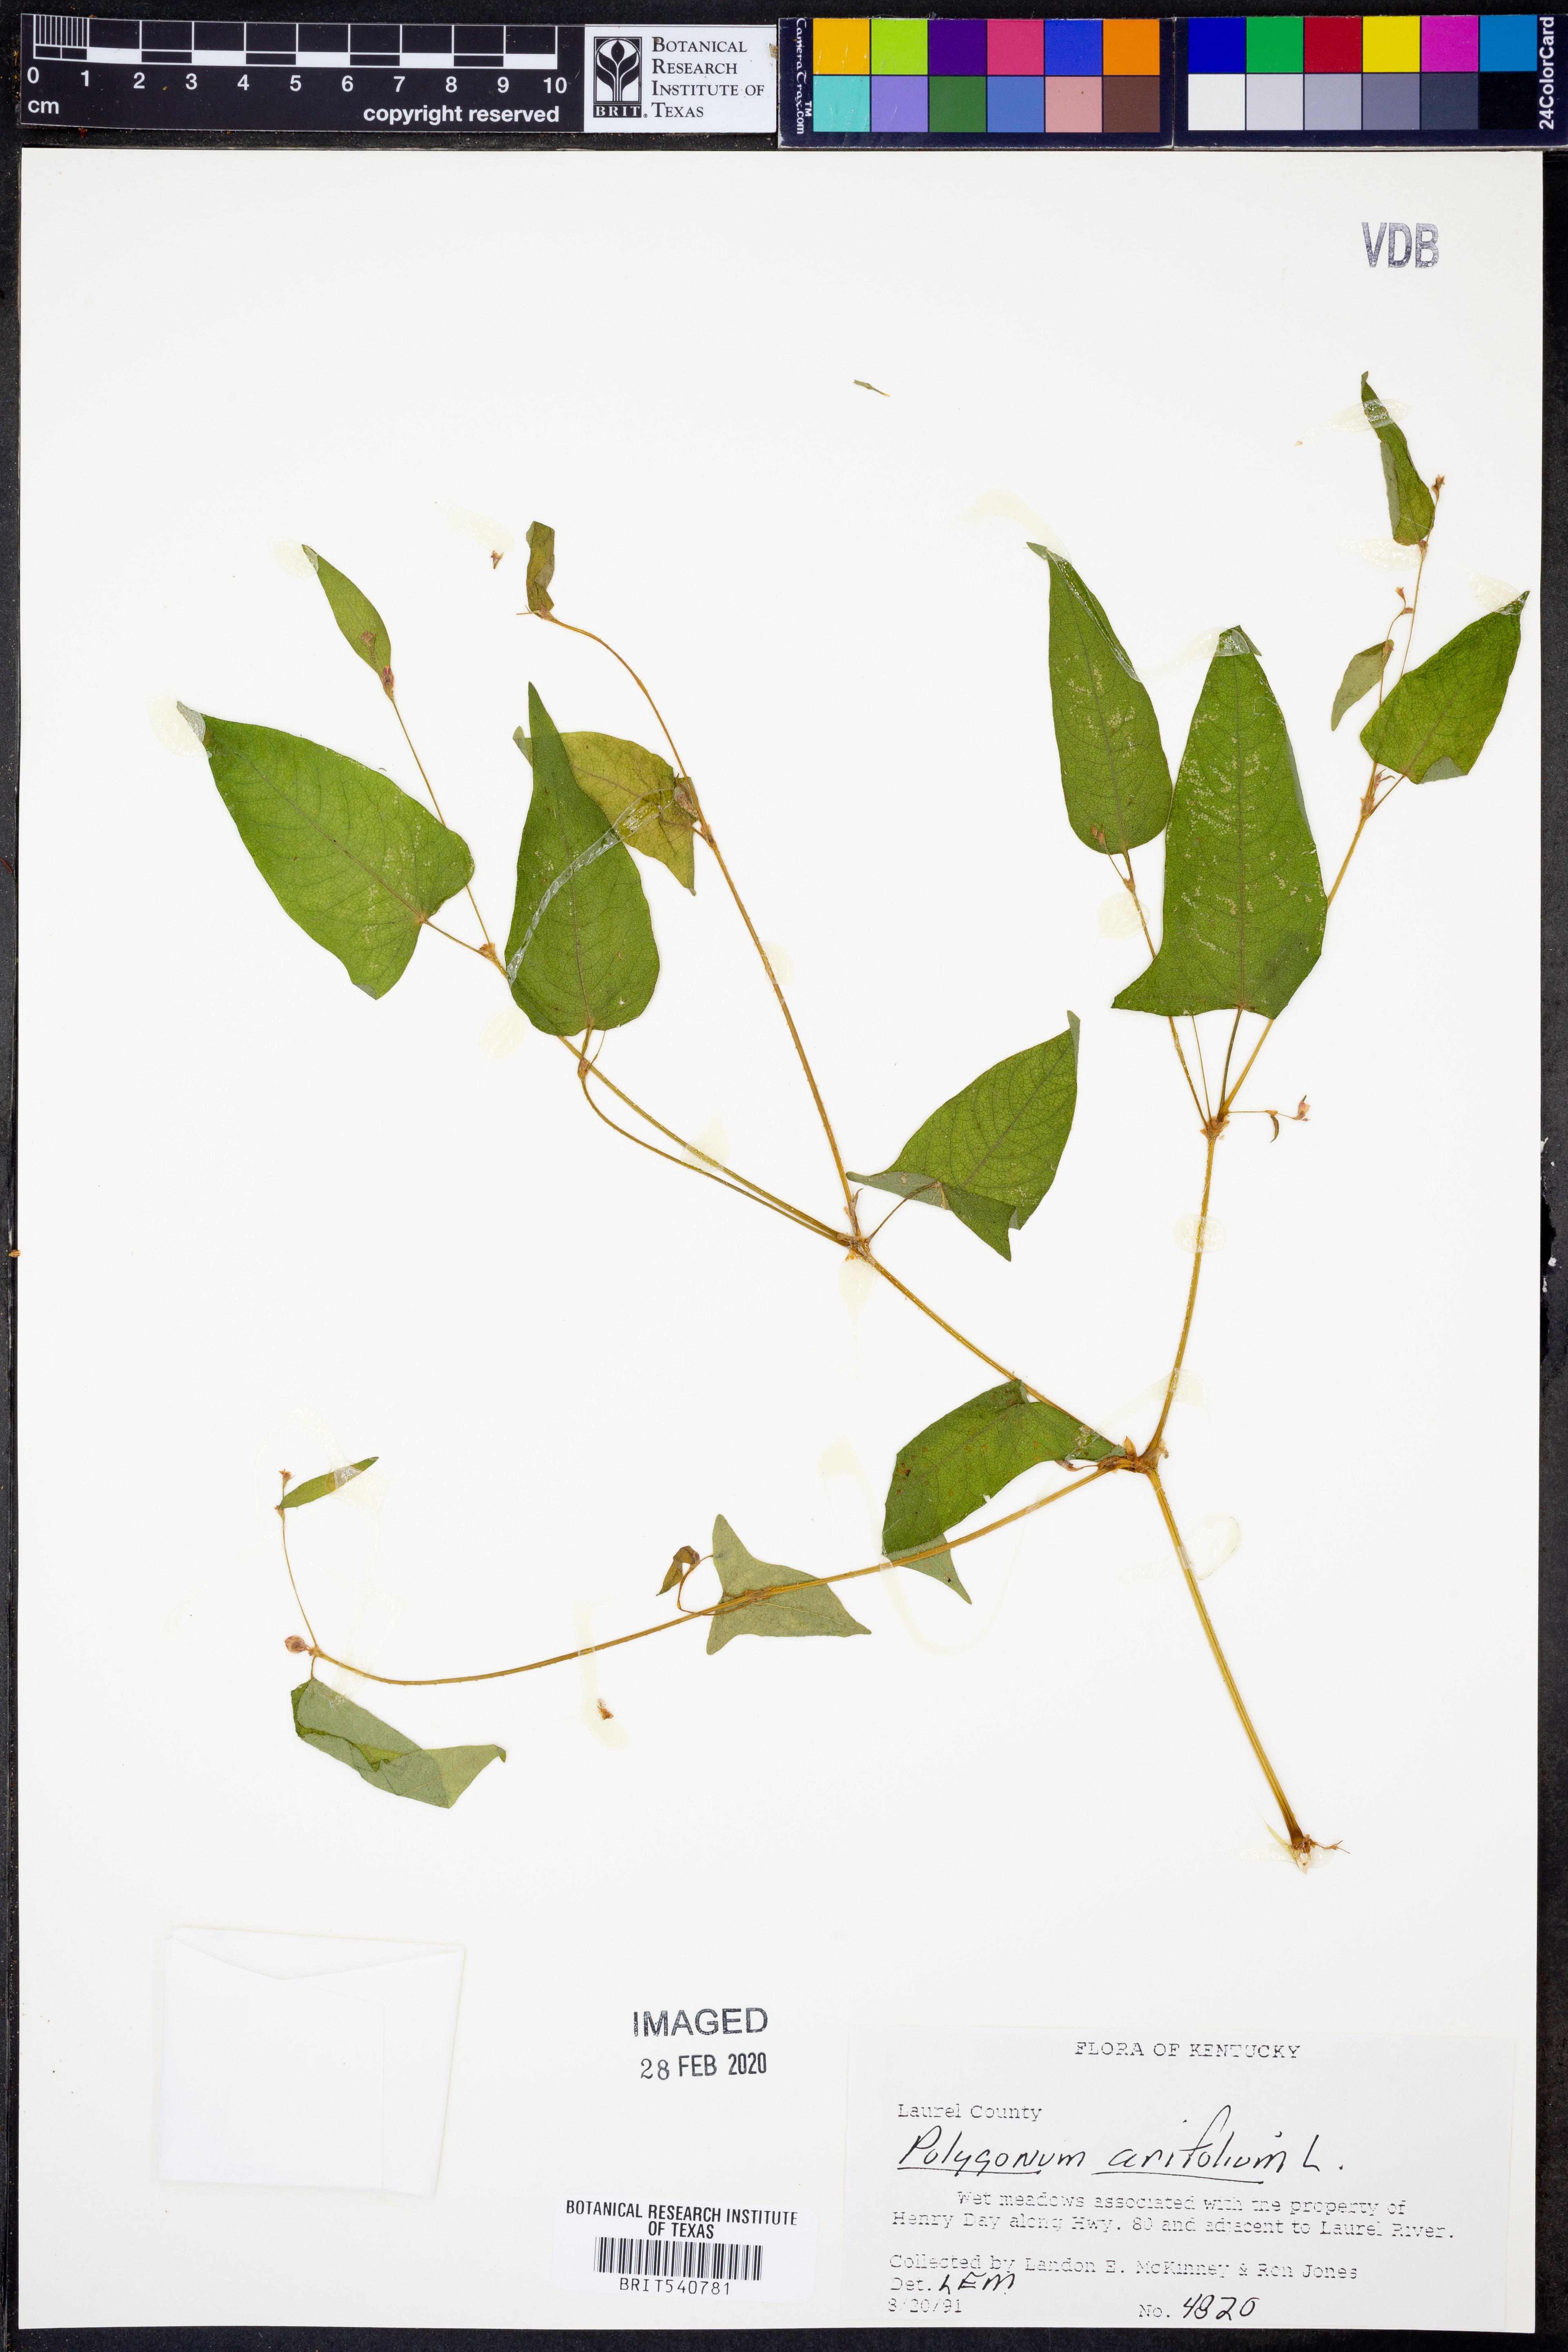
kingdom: Plantae
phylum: Tracheophyta
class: Magnoliopsida
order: Caryophyllales
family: Polygonaceae
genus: Persicaria
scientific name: Persicaria arifolia
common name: Halberd-leaved tear-thumb
